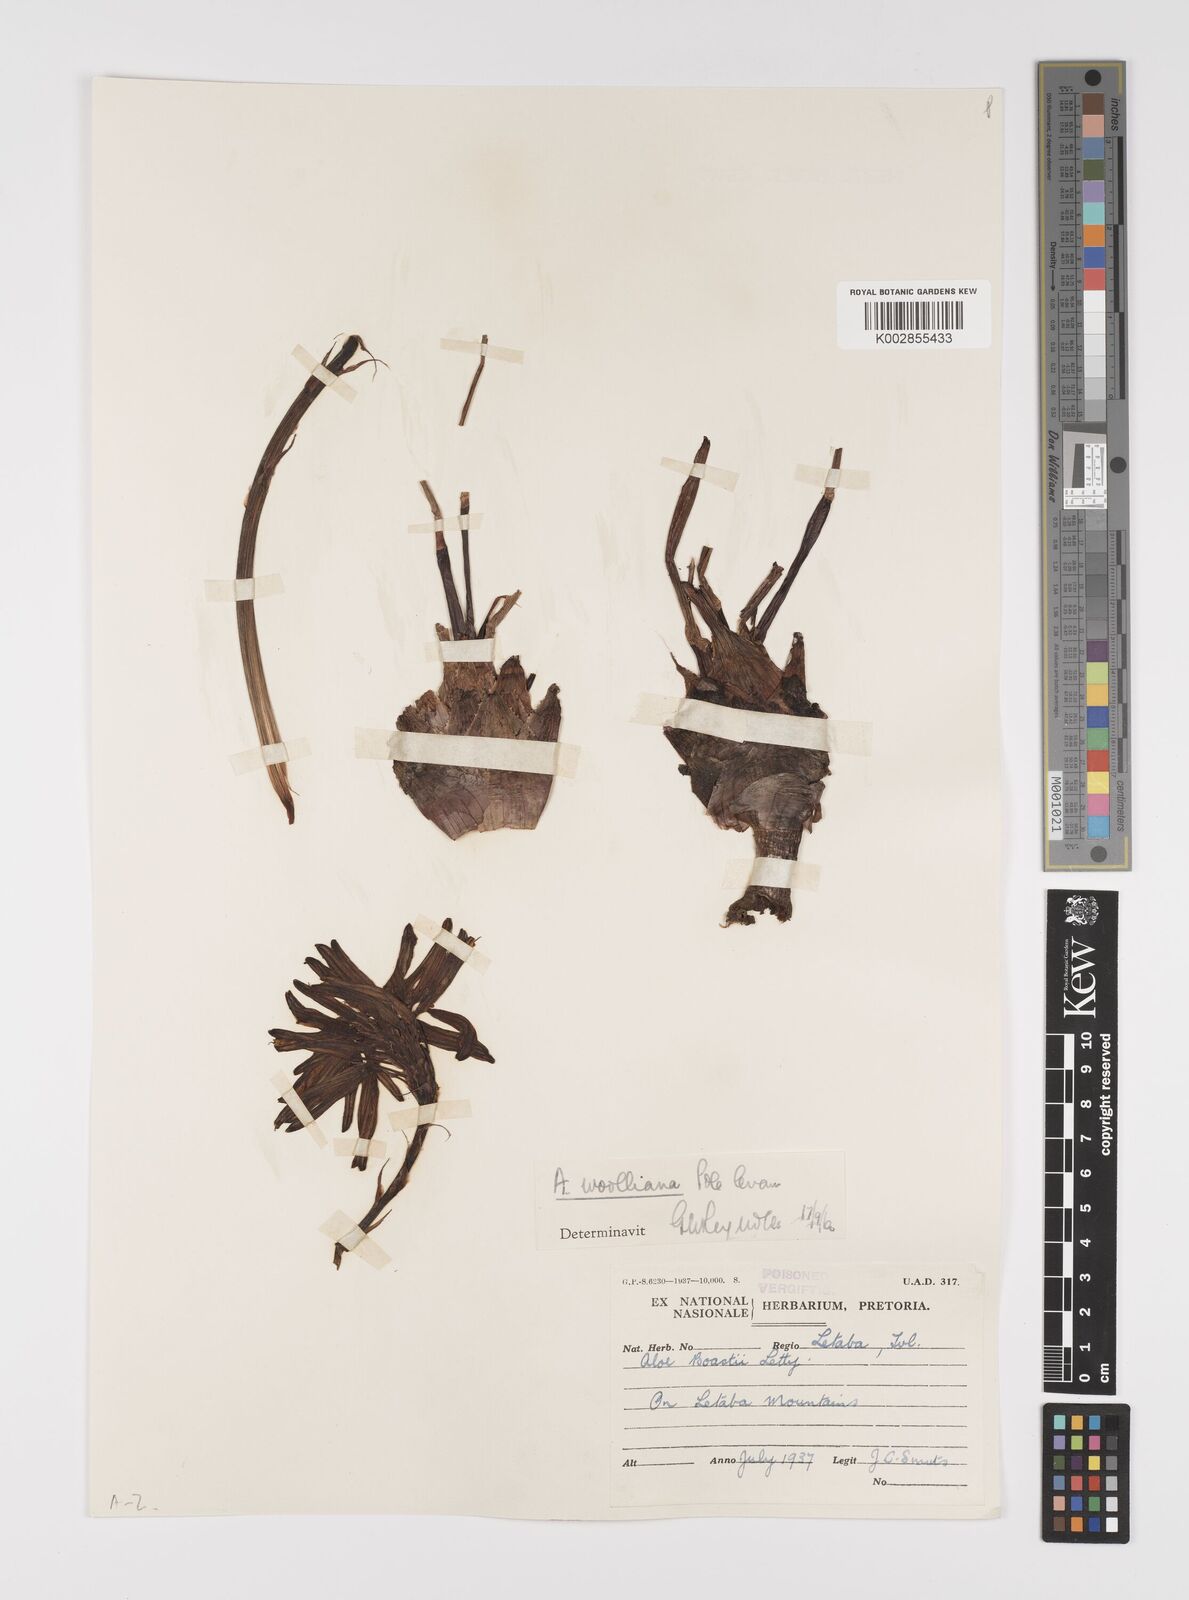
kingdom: Plantae
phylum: Tracheophyta
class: Liliopsida
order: Asparagales
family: Asphodelaceae
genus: Aloe
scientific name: Aloe chortolirioides
